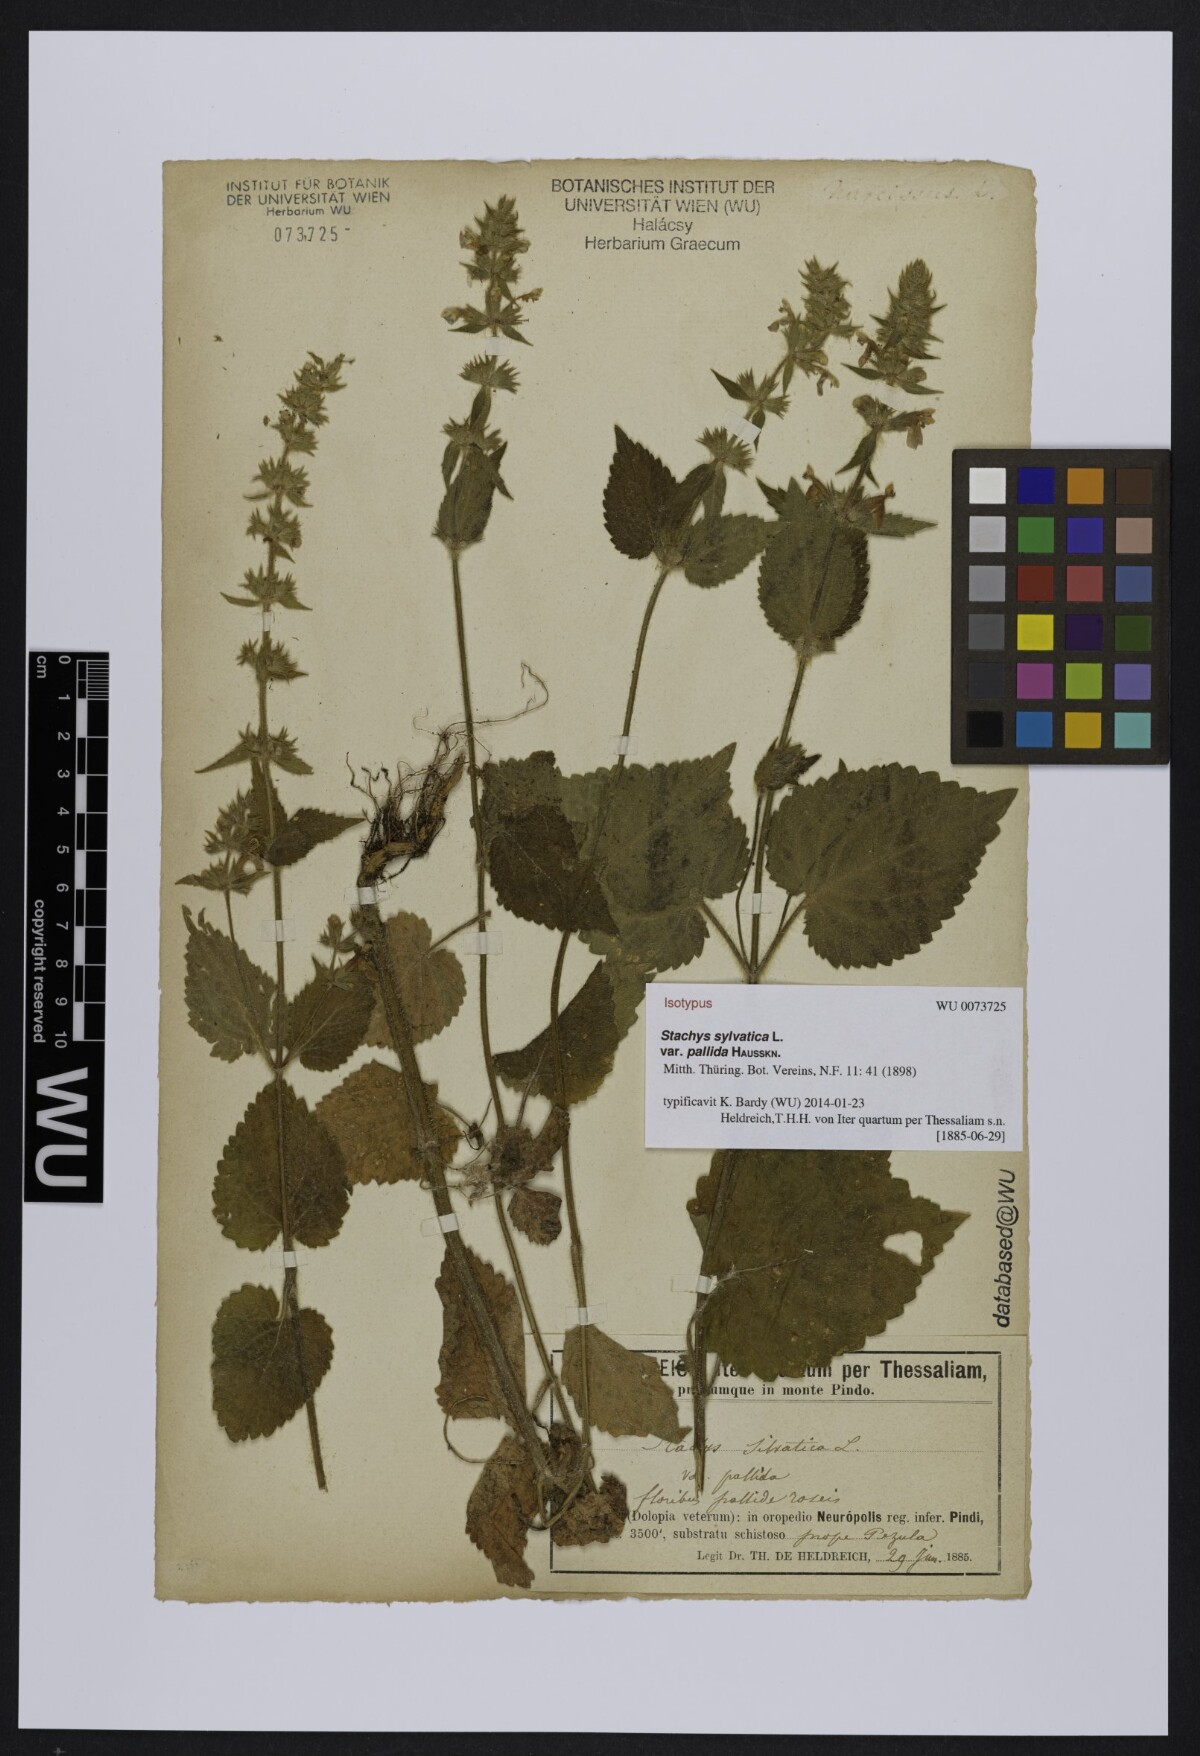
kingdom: Plantae
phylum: Tracheophyta
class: Magnoliopsida
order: Lamiales
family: Lamiaceae
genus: Stachys
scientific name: Stachys sylvatica
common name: Hedge woundwort
